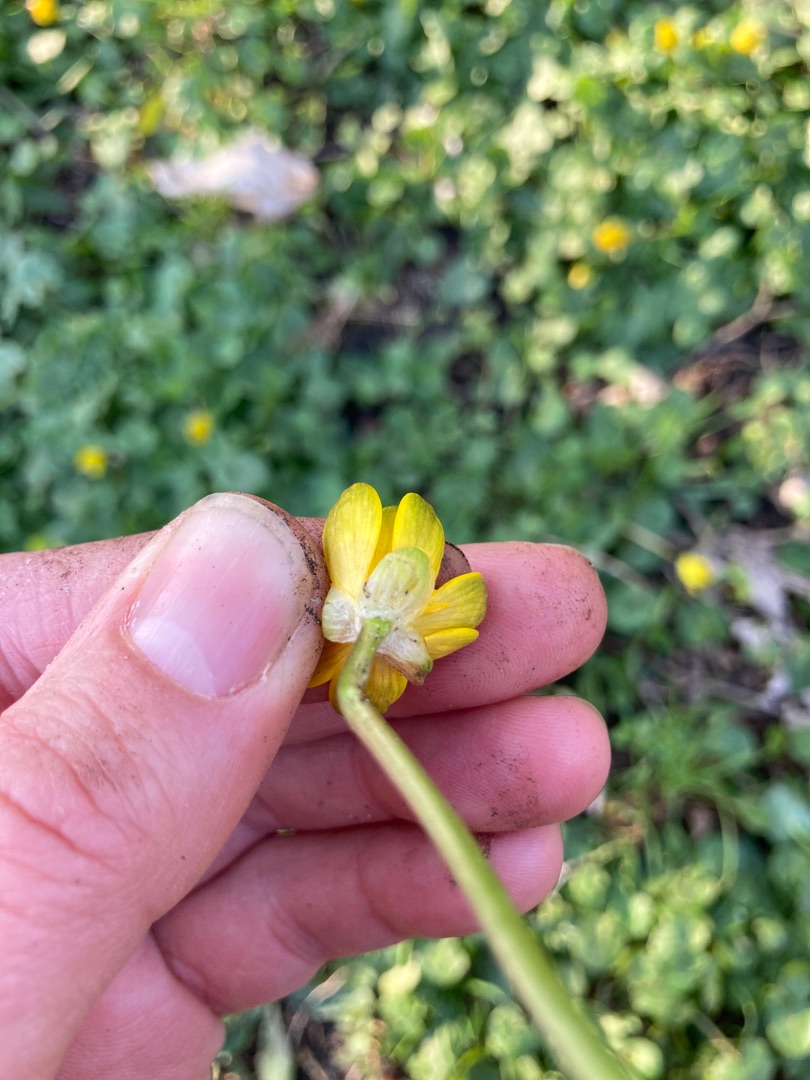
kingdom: Plantae
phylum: Tracheophyta
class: Magnoliopsida
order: Ranunculales
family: Ranunculaceae
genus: Ficaria
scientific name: Ficaria verna
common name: Vorterod
